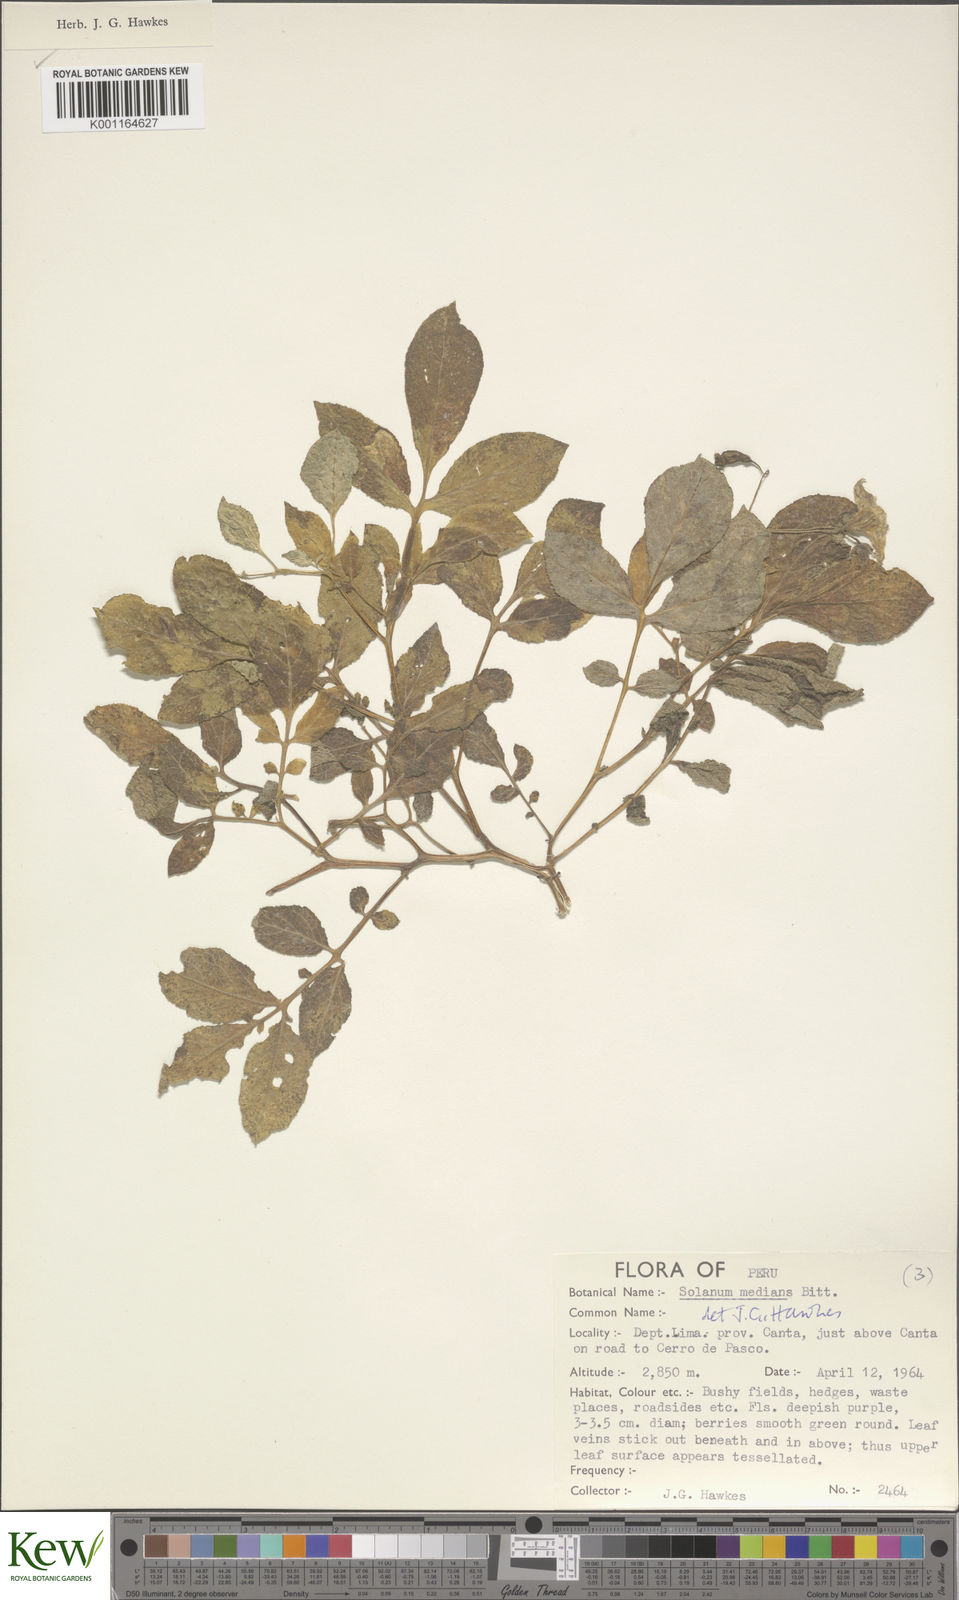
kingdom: Plantae
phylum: Tracheophyta
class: Magnoliopsida
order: Solanales
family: Solanaceae
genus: Solanum
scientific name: Solanum medians
